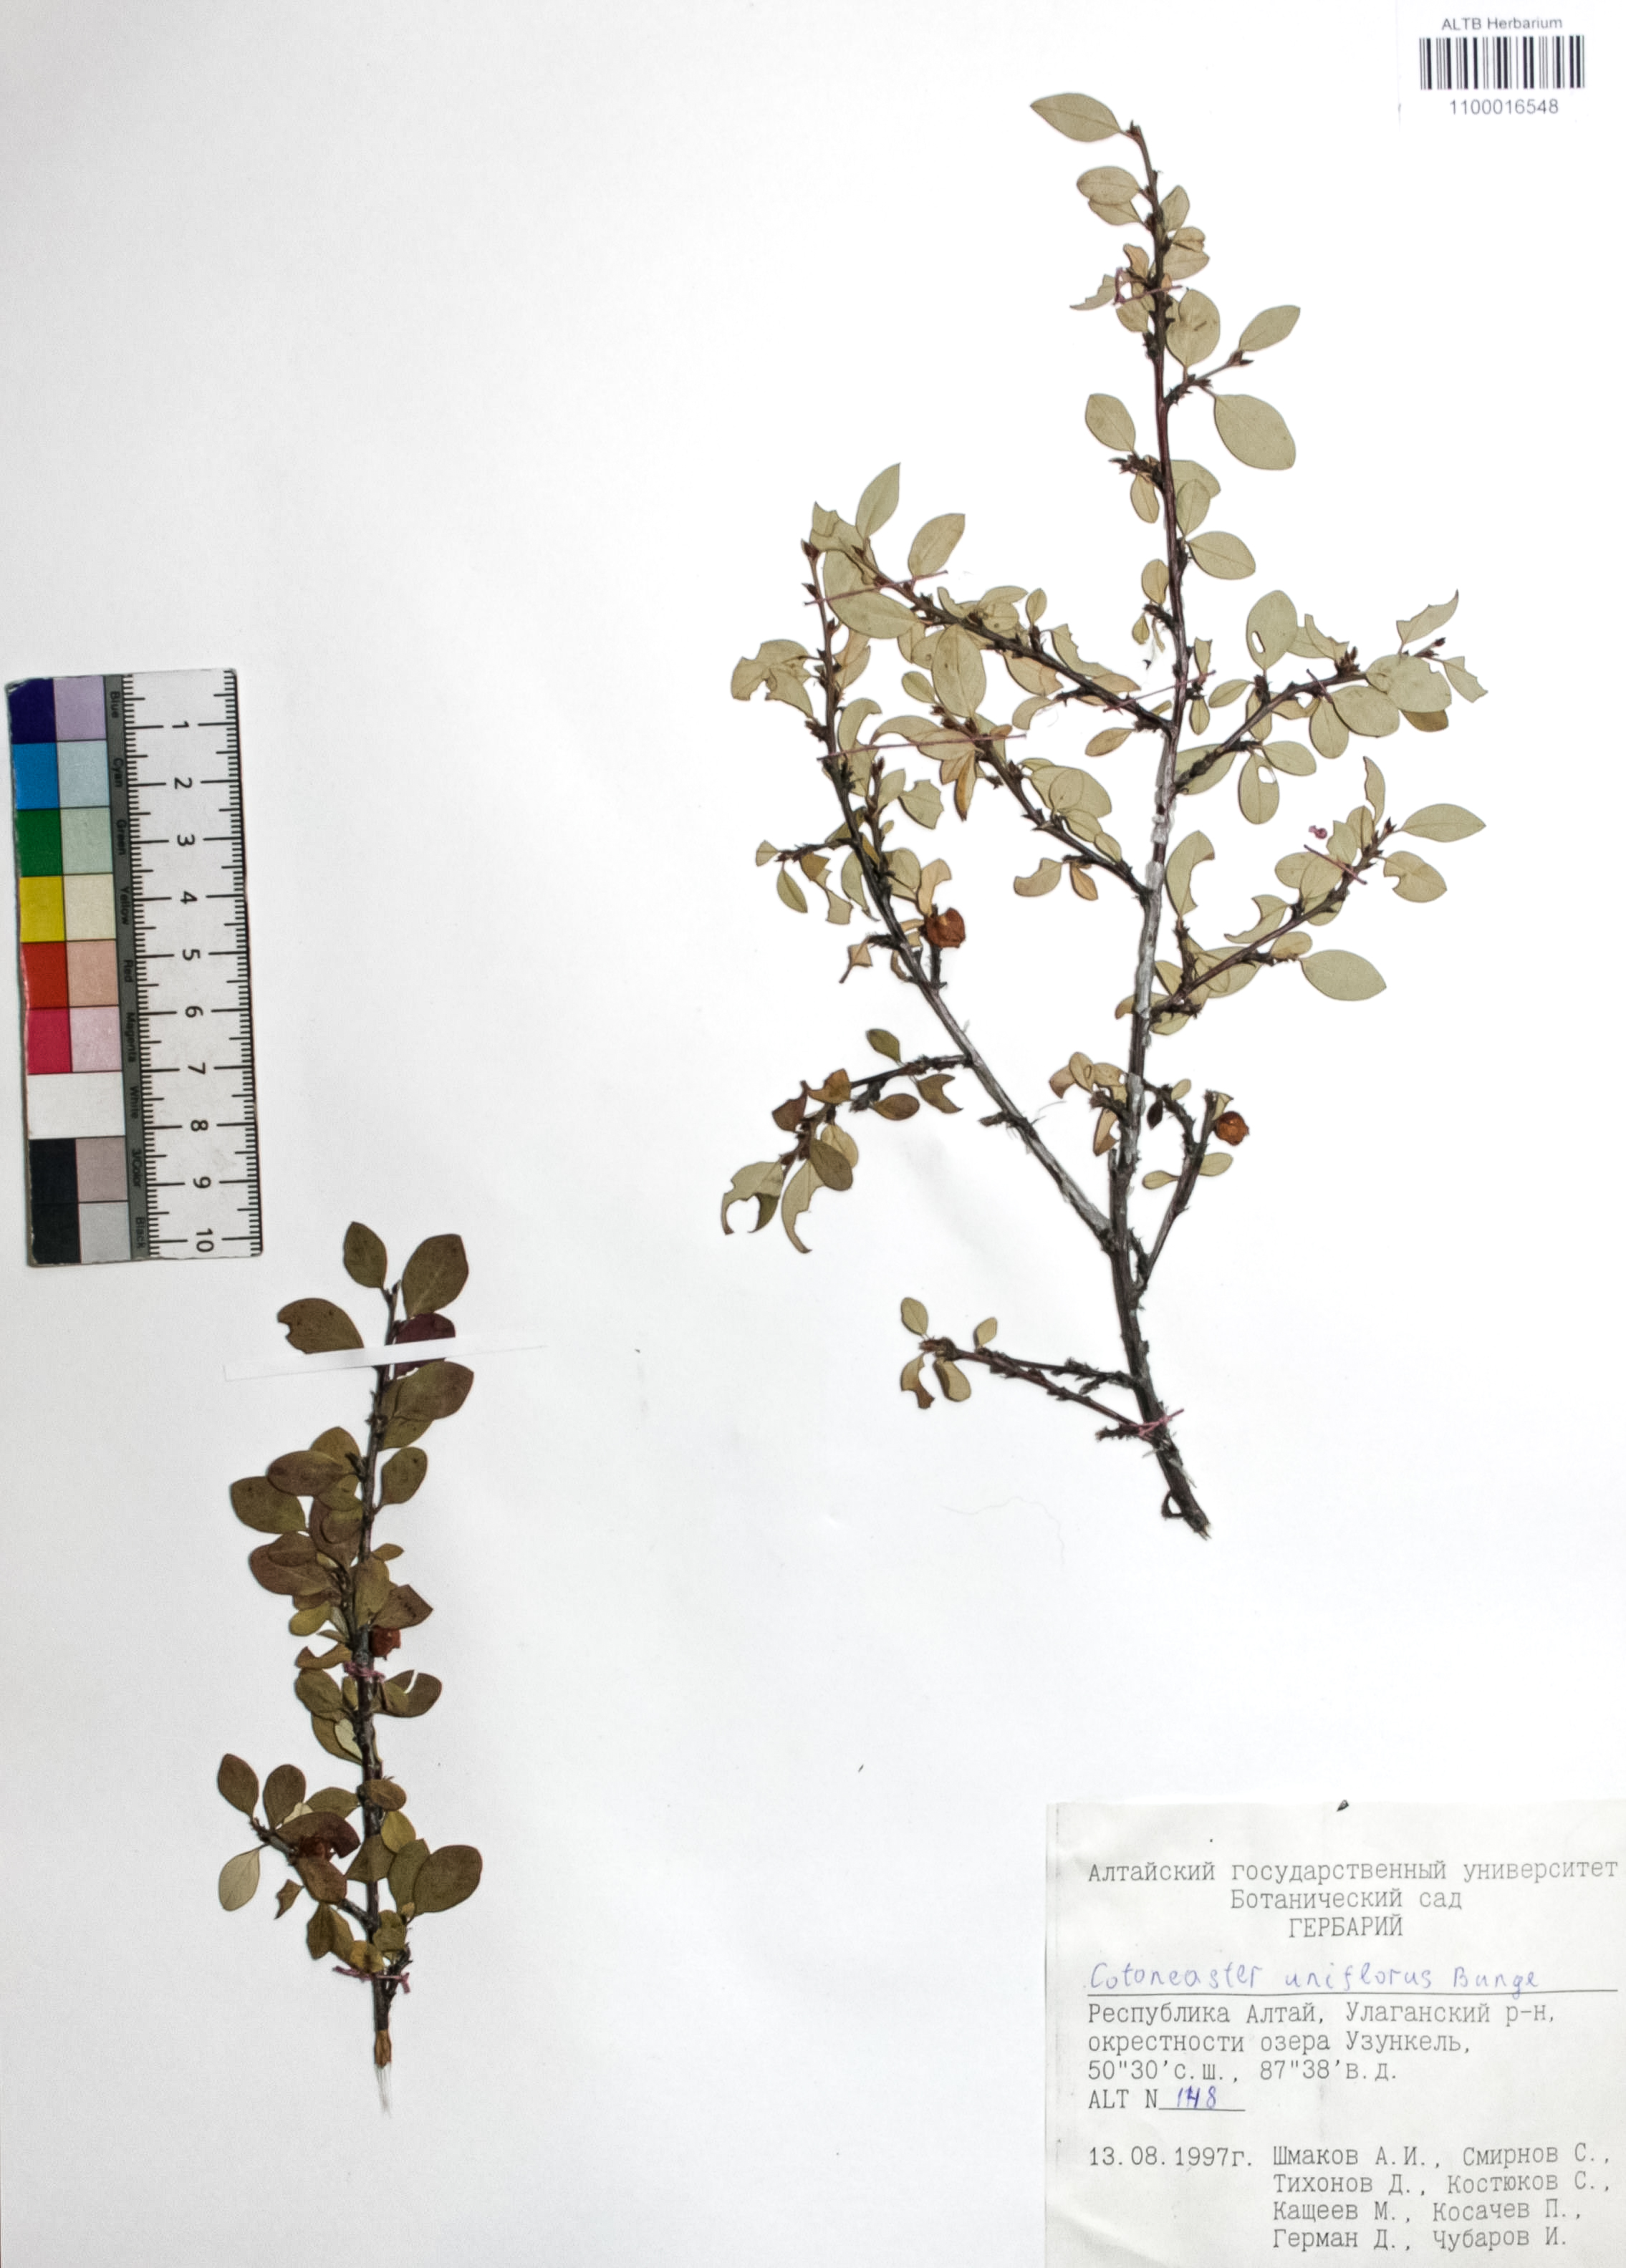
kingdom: Plantae
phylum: Tracheophyta
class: Magnoliopsida
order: Rosales
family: Rosaceae
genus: Cotoneaster
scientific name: Cotoneaster uniflorus
